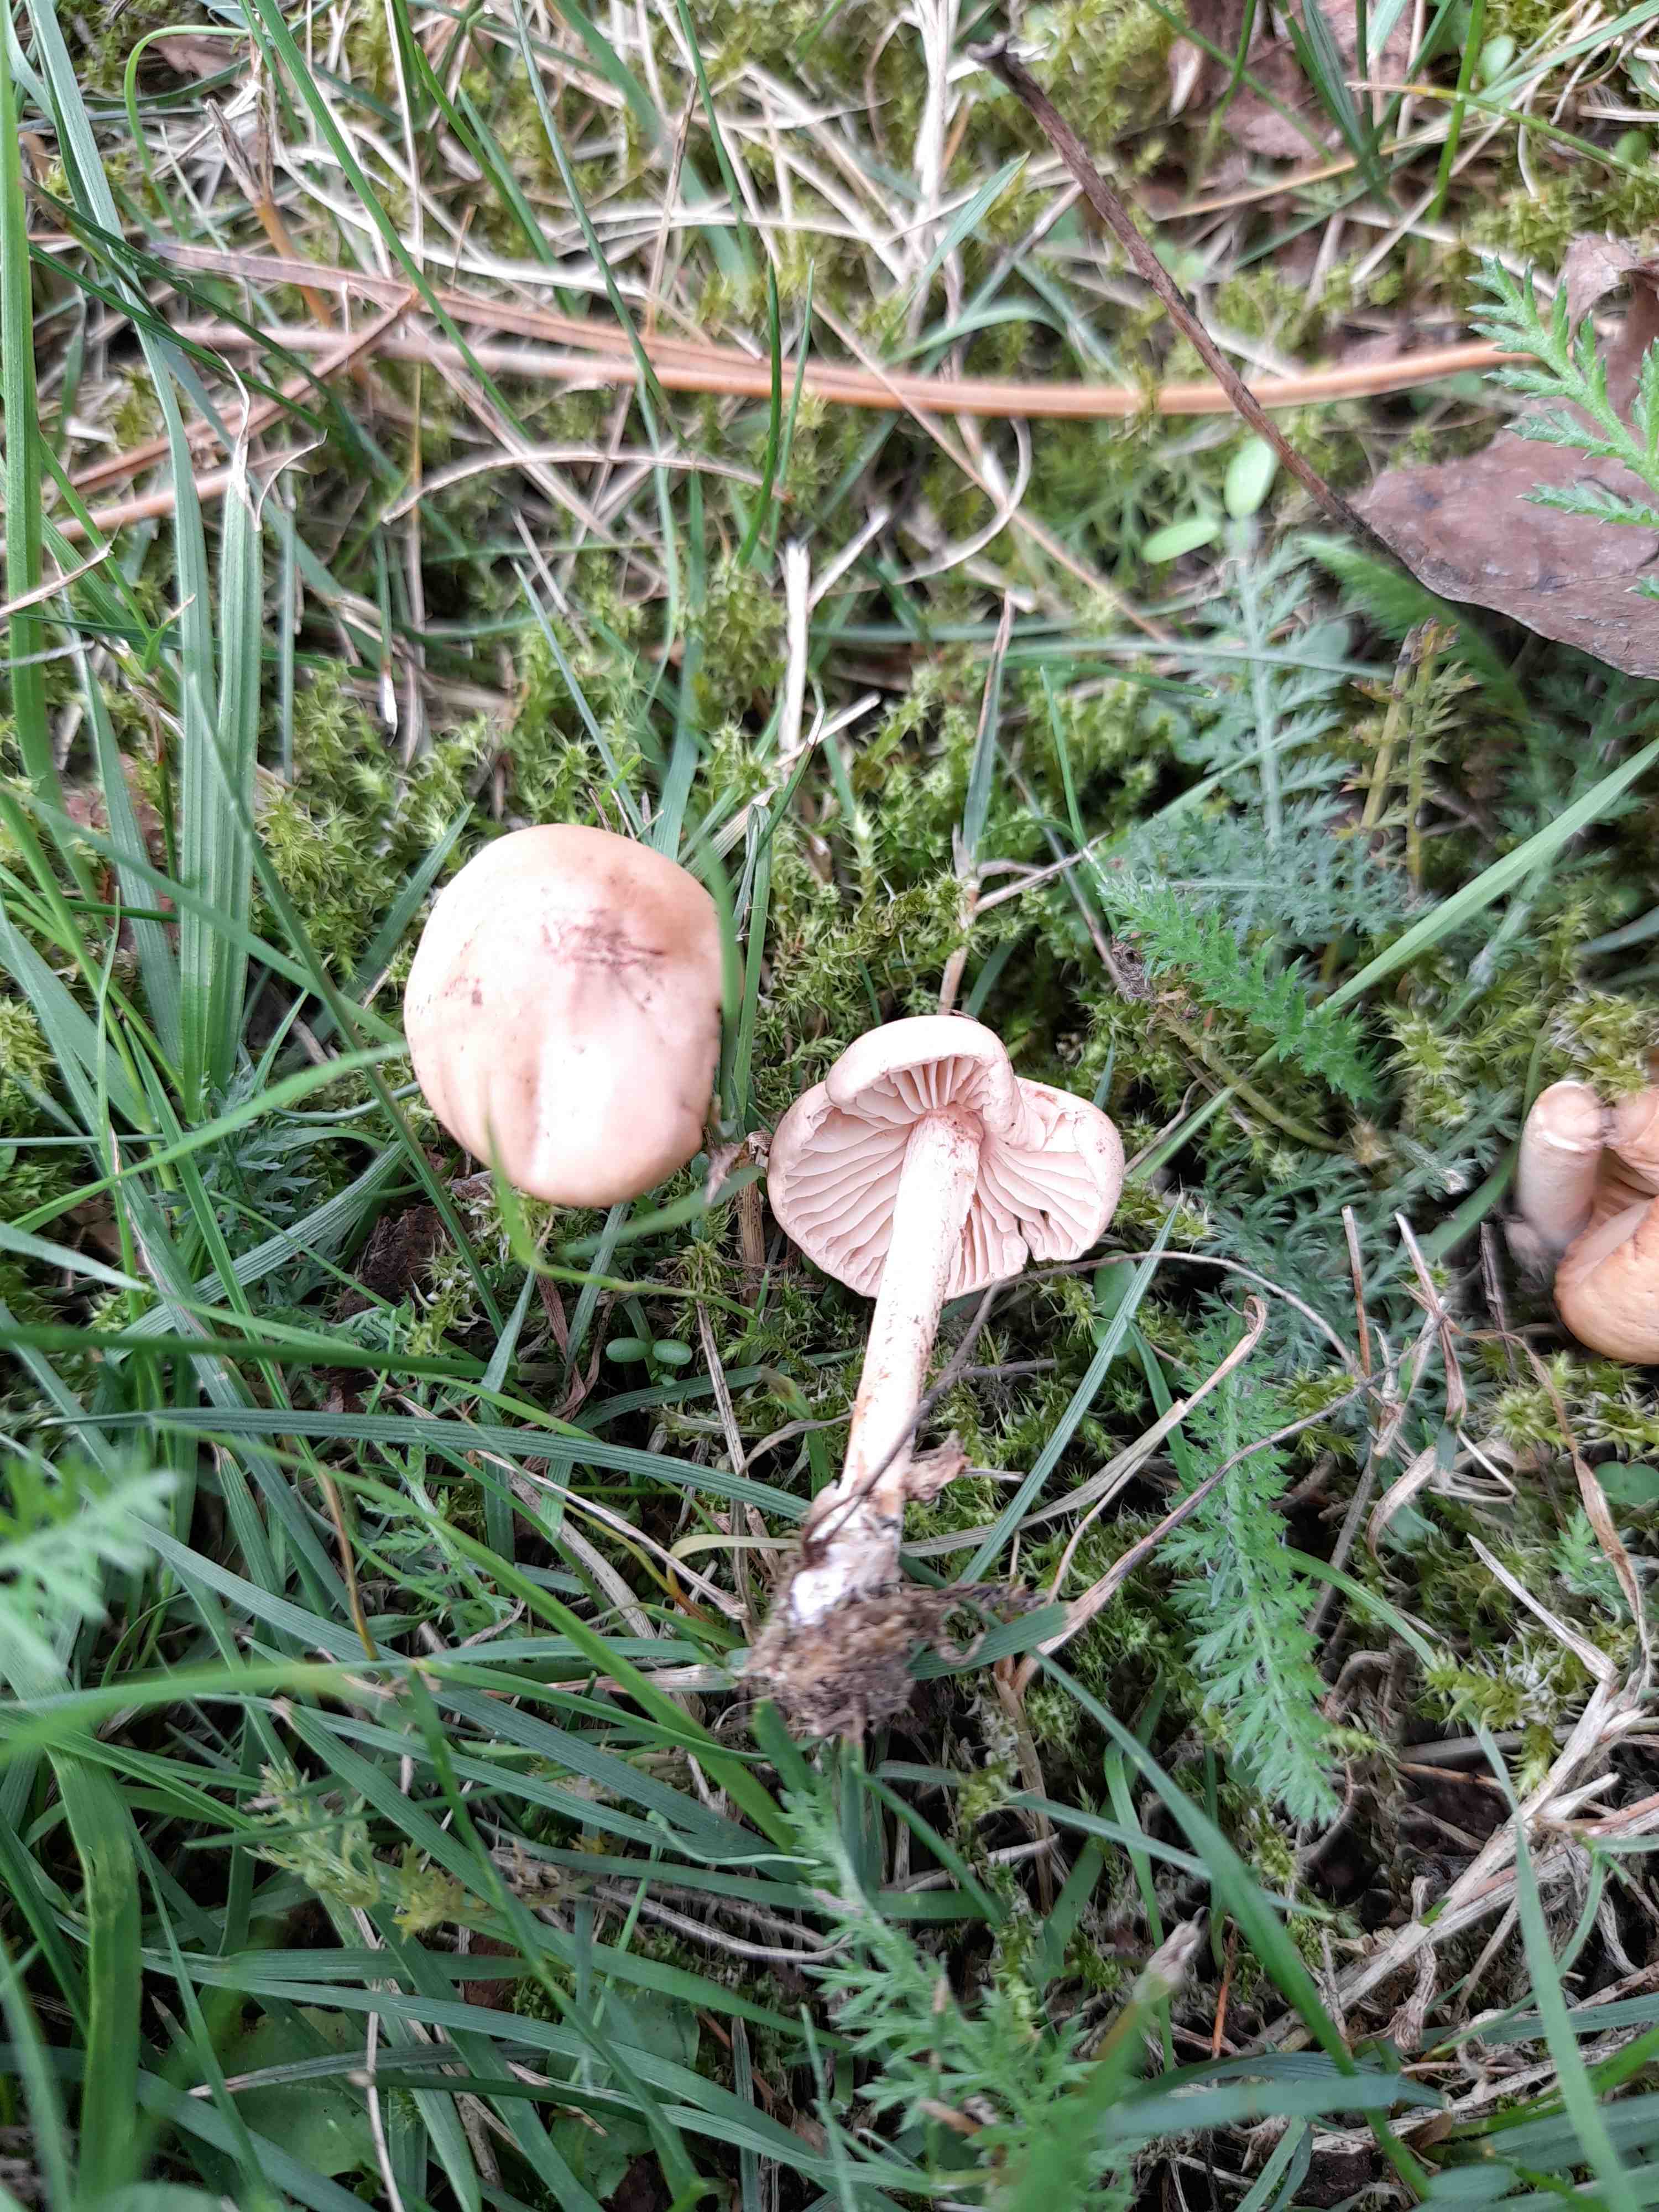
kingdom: Fungi
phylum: Basidiomycota
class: Agaricomycetes
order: Agaricales
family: Marasmiaceae
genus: Marasmius
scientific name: Marasmius oreades
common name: elledans-bruskhat
